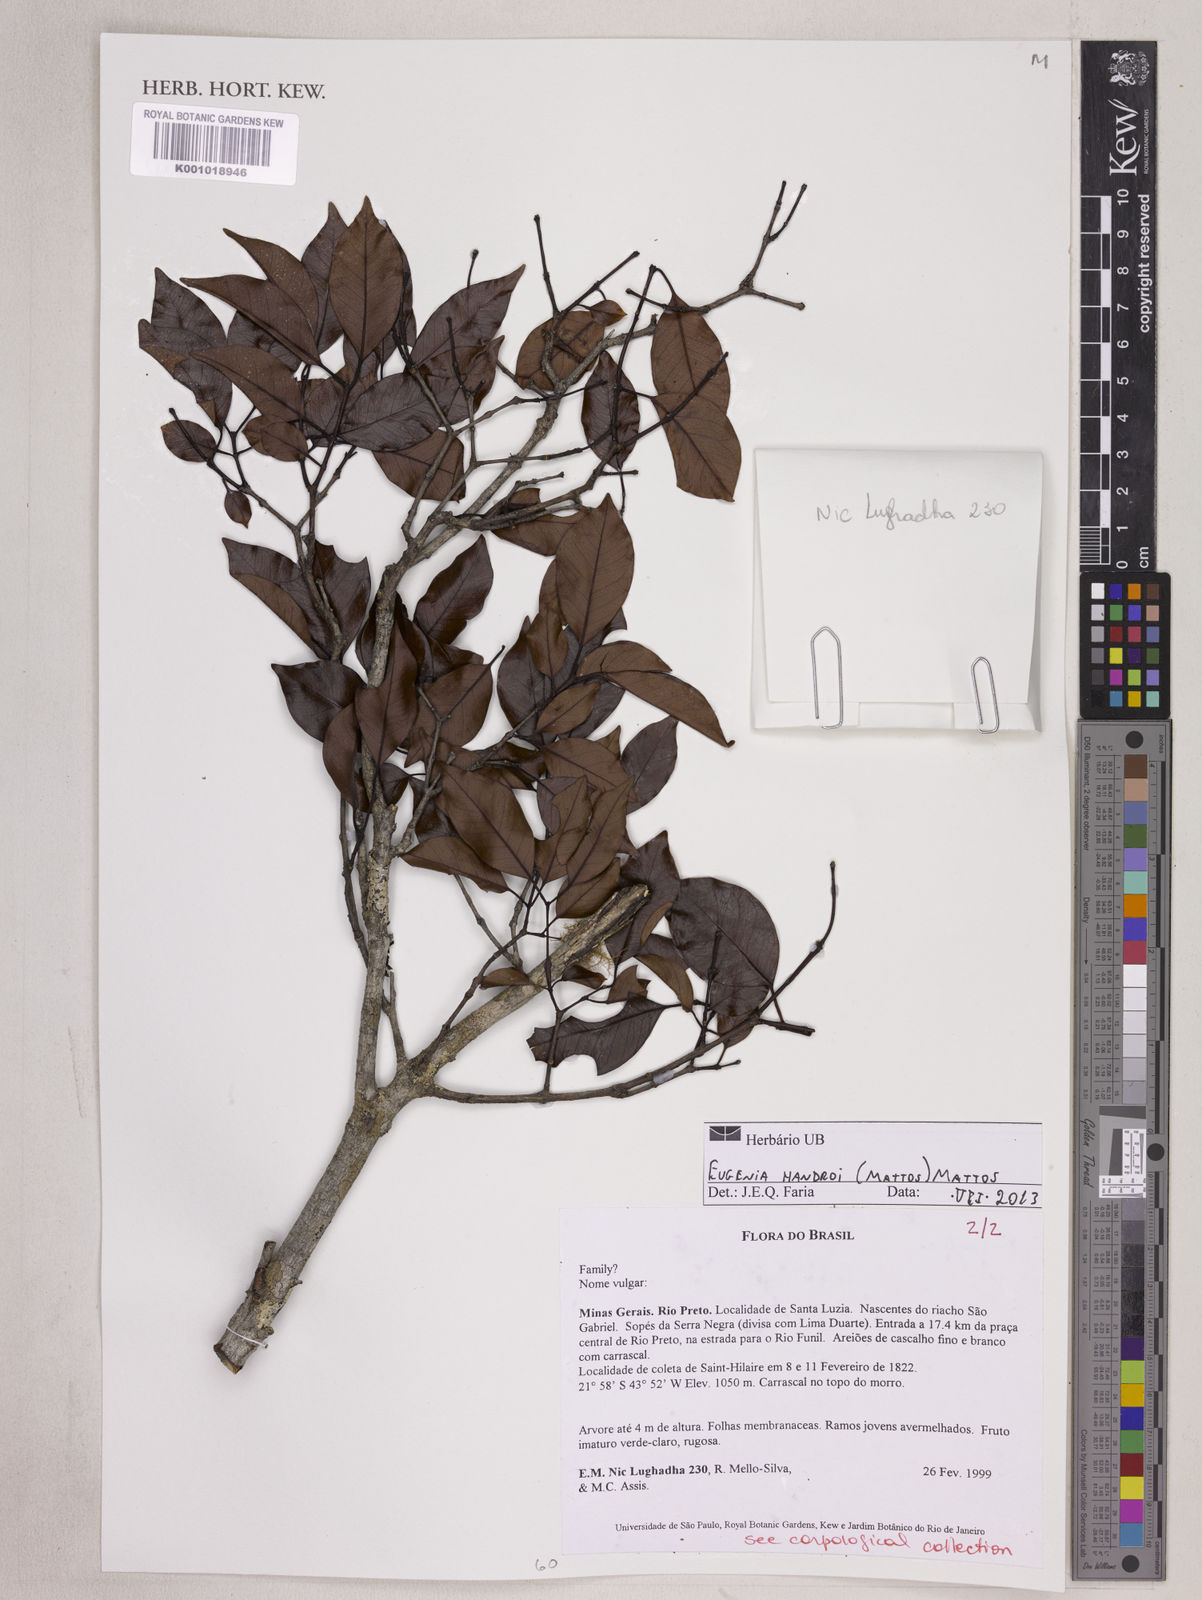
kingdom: Plantae
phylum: Tracheophyta
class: Magnoliopsida
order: Myrtales
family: Myrtaceae
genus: Eugenia
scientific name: Eugenia handroi
